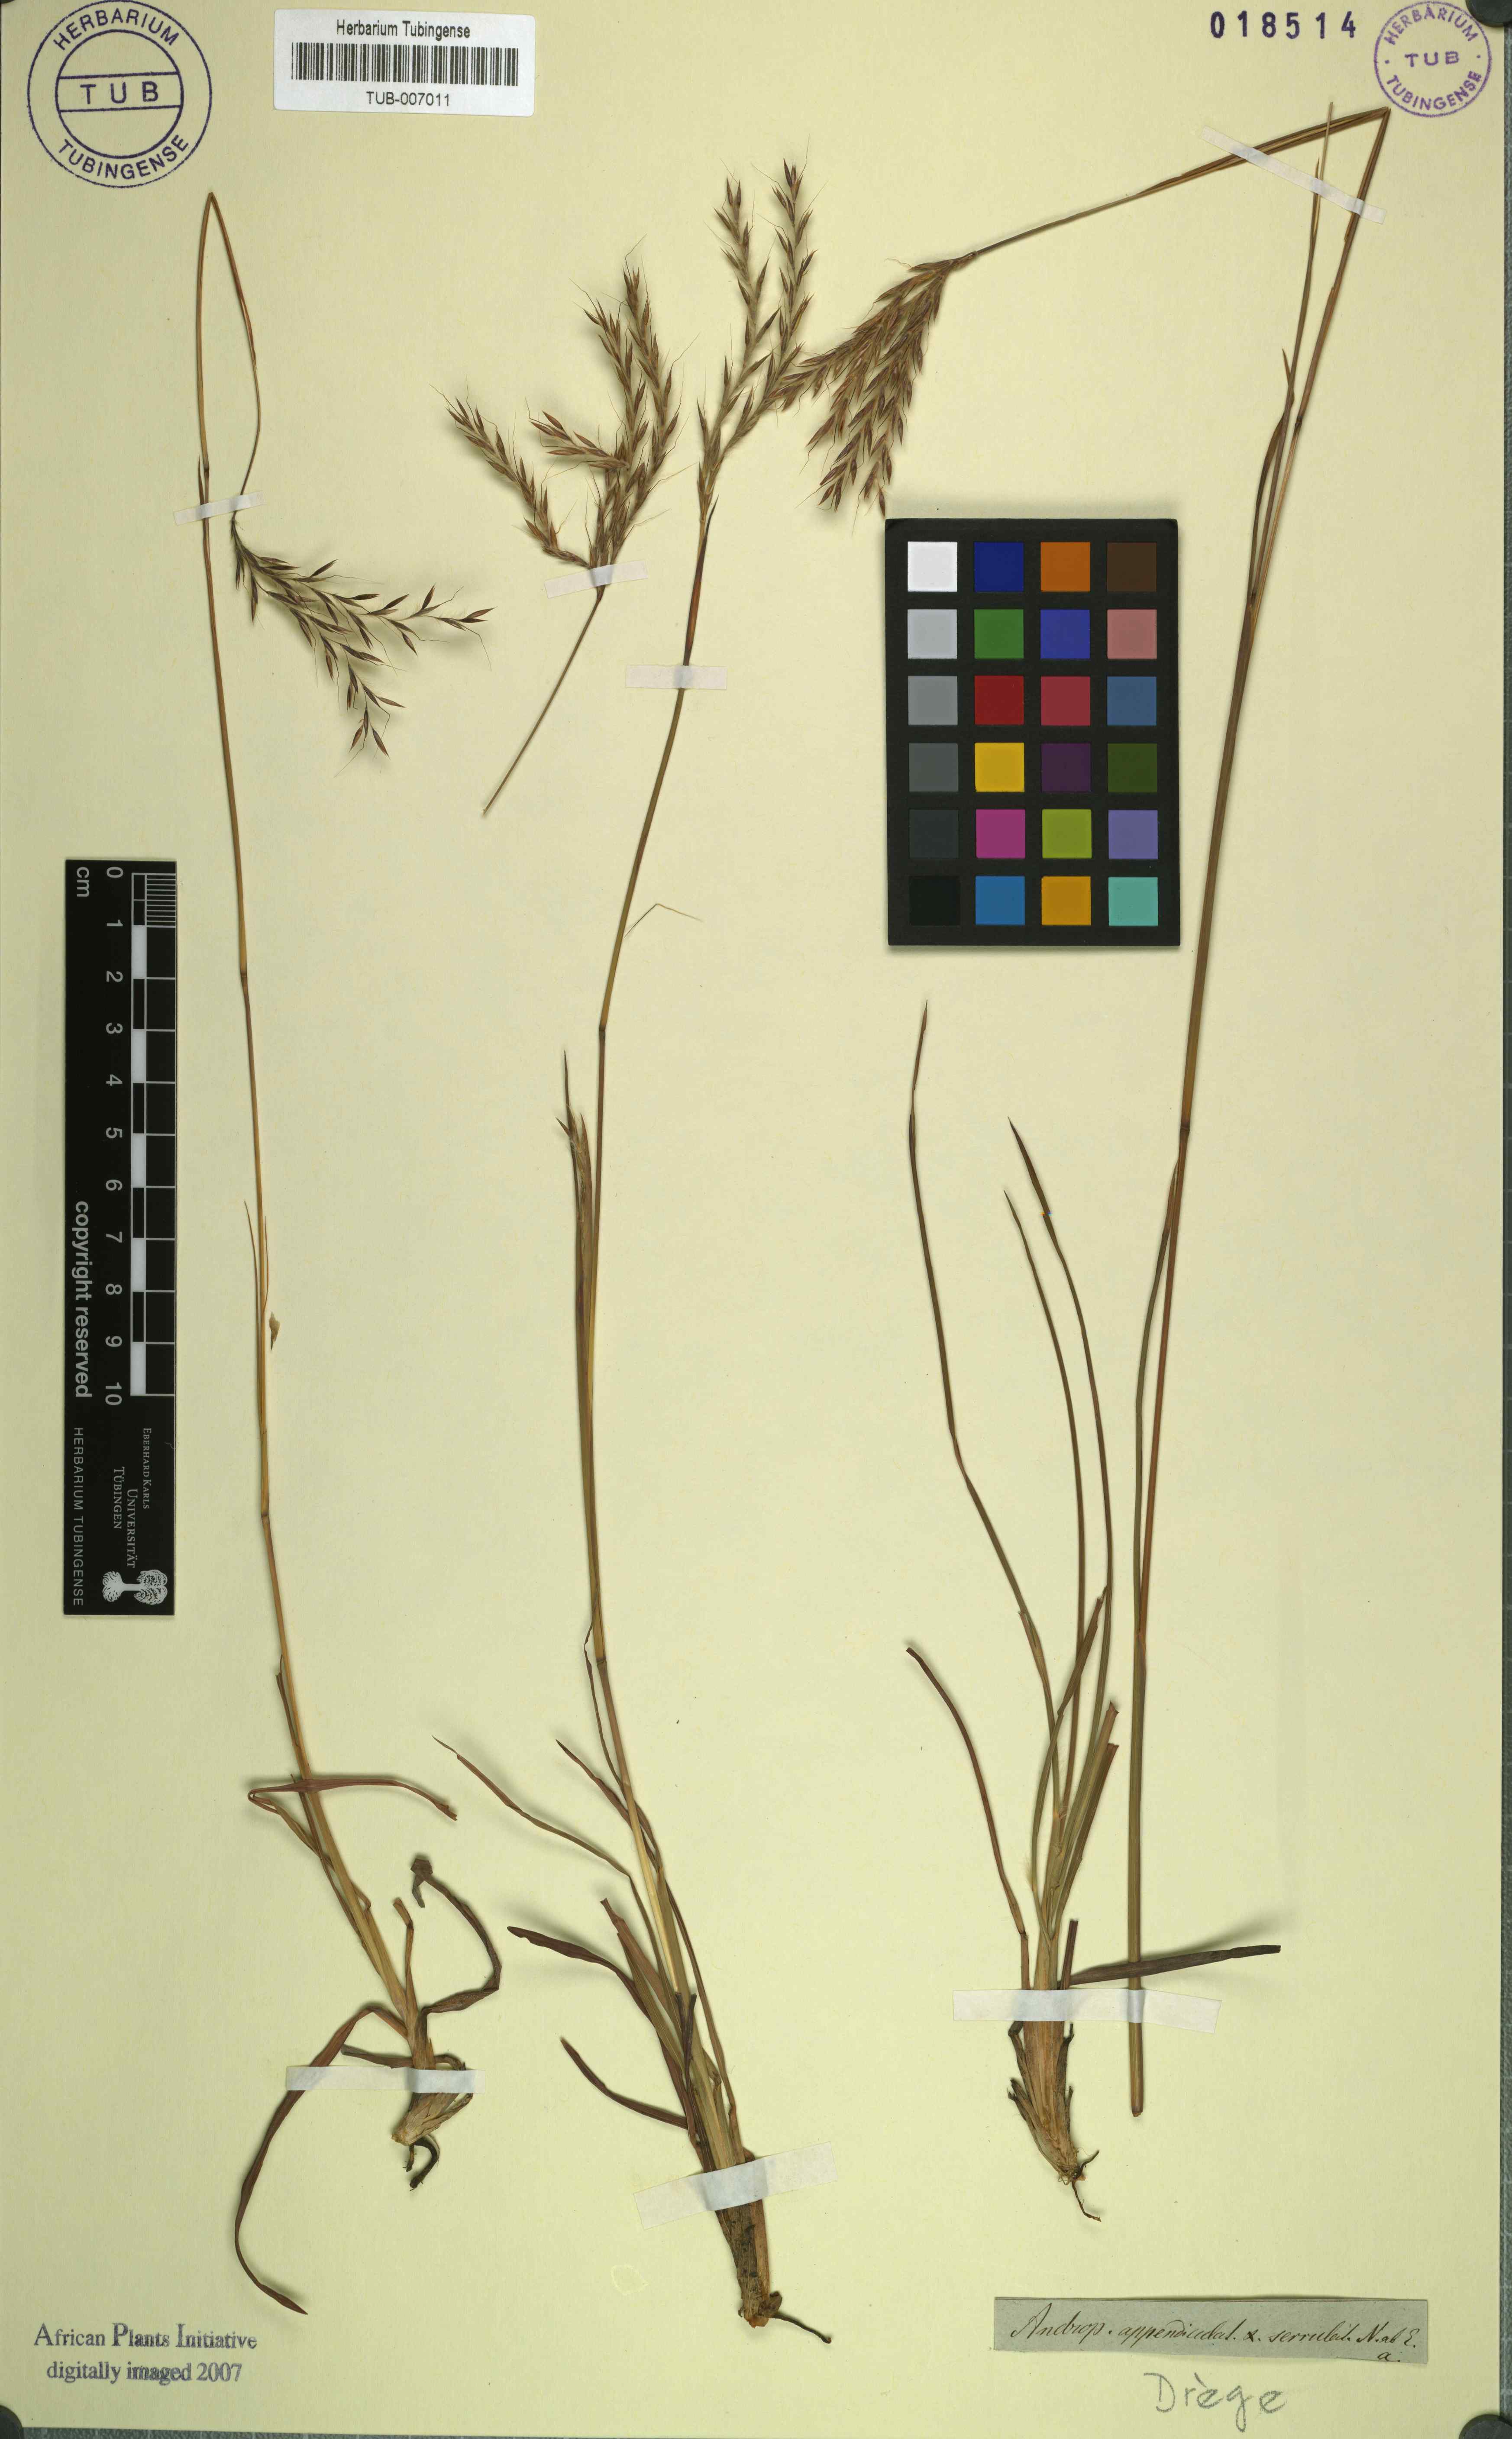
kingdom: Plantae
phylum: Tracheophyta
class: Liliopsida
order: Poales
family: Poaceae
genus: Andropogon
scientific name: Andropogon appendiculatus
